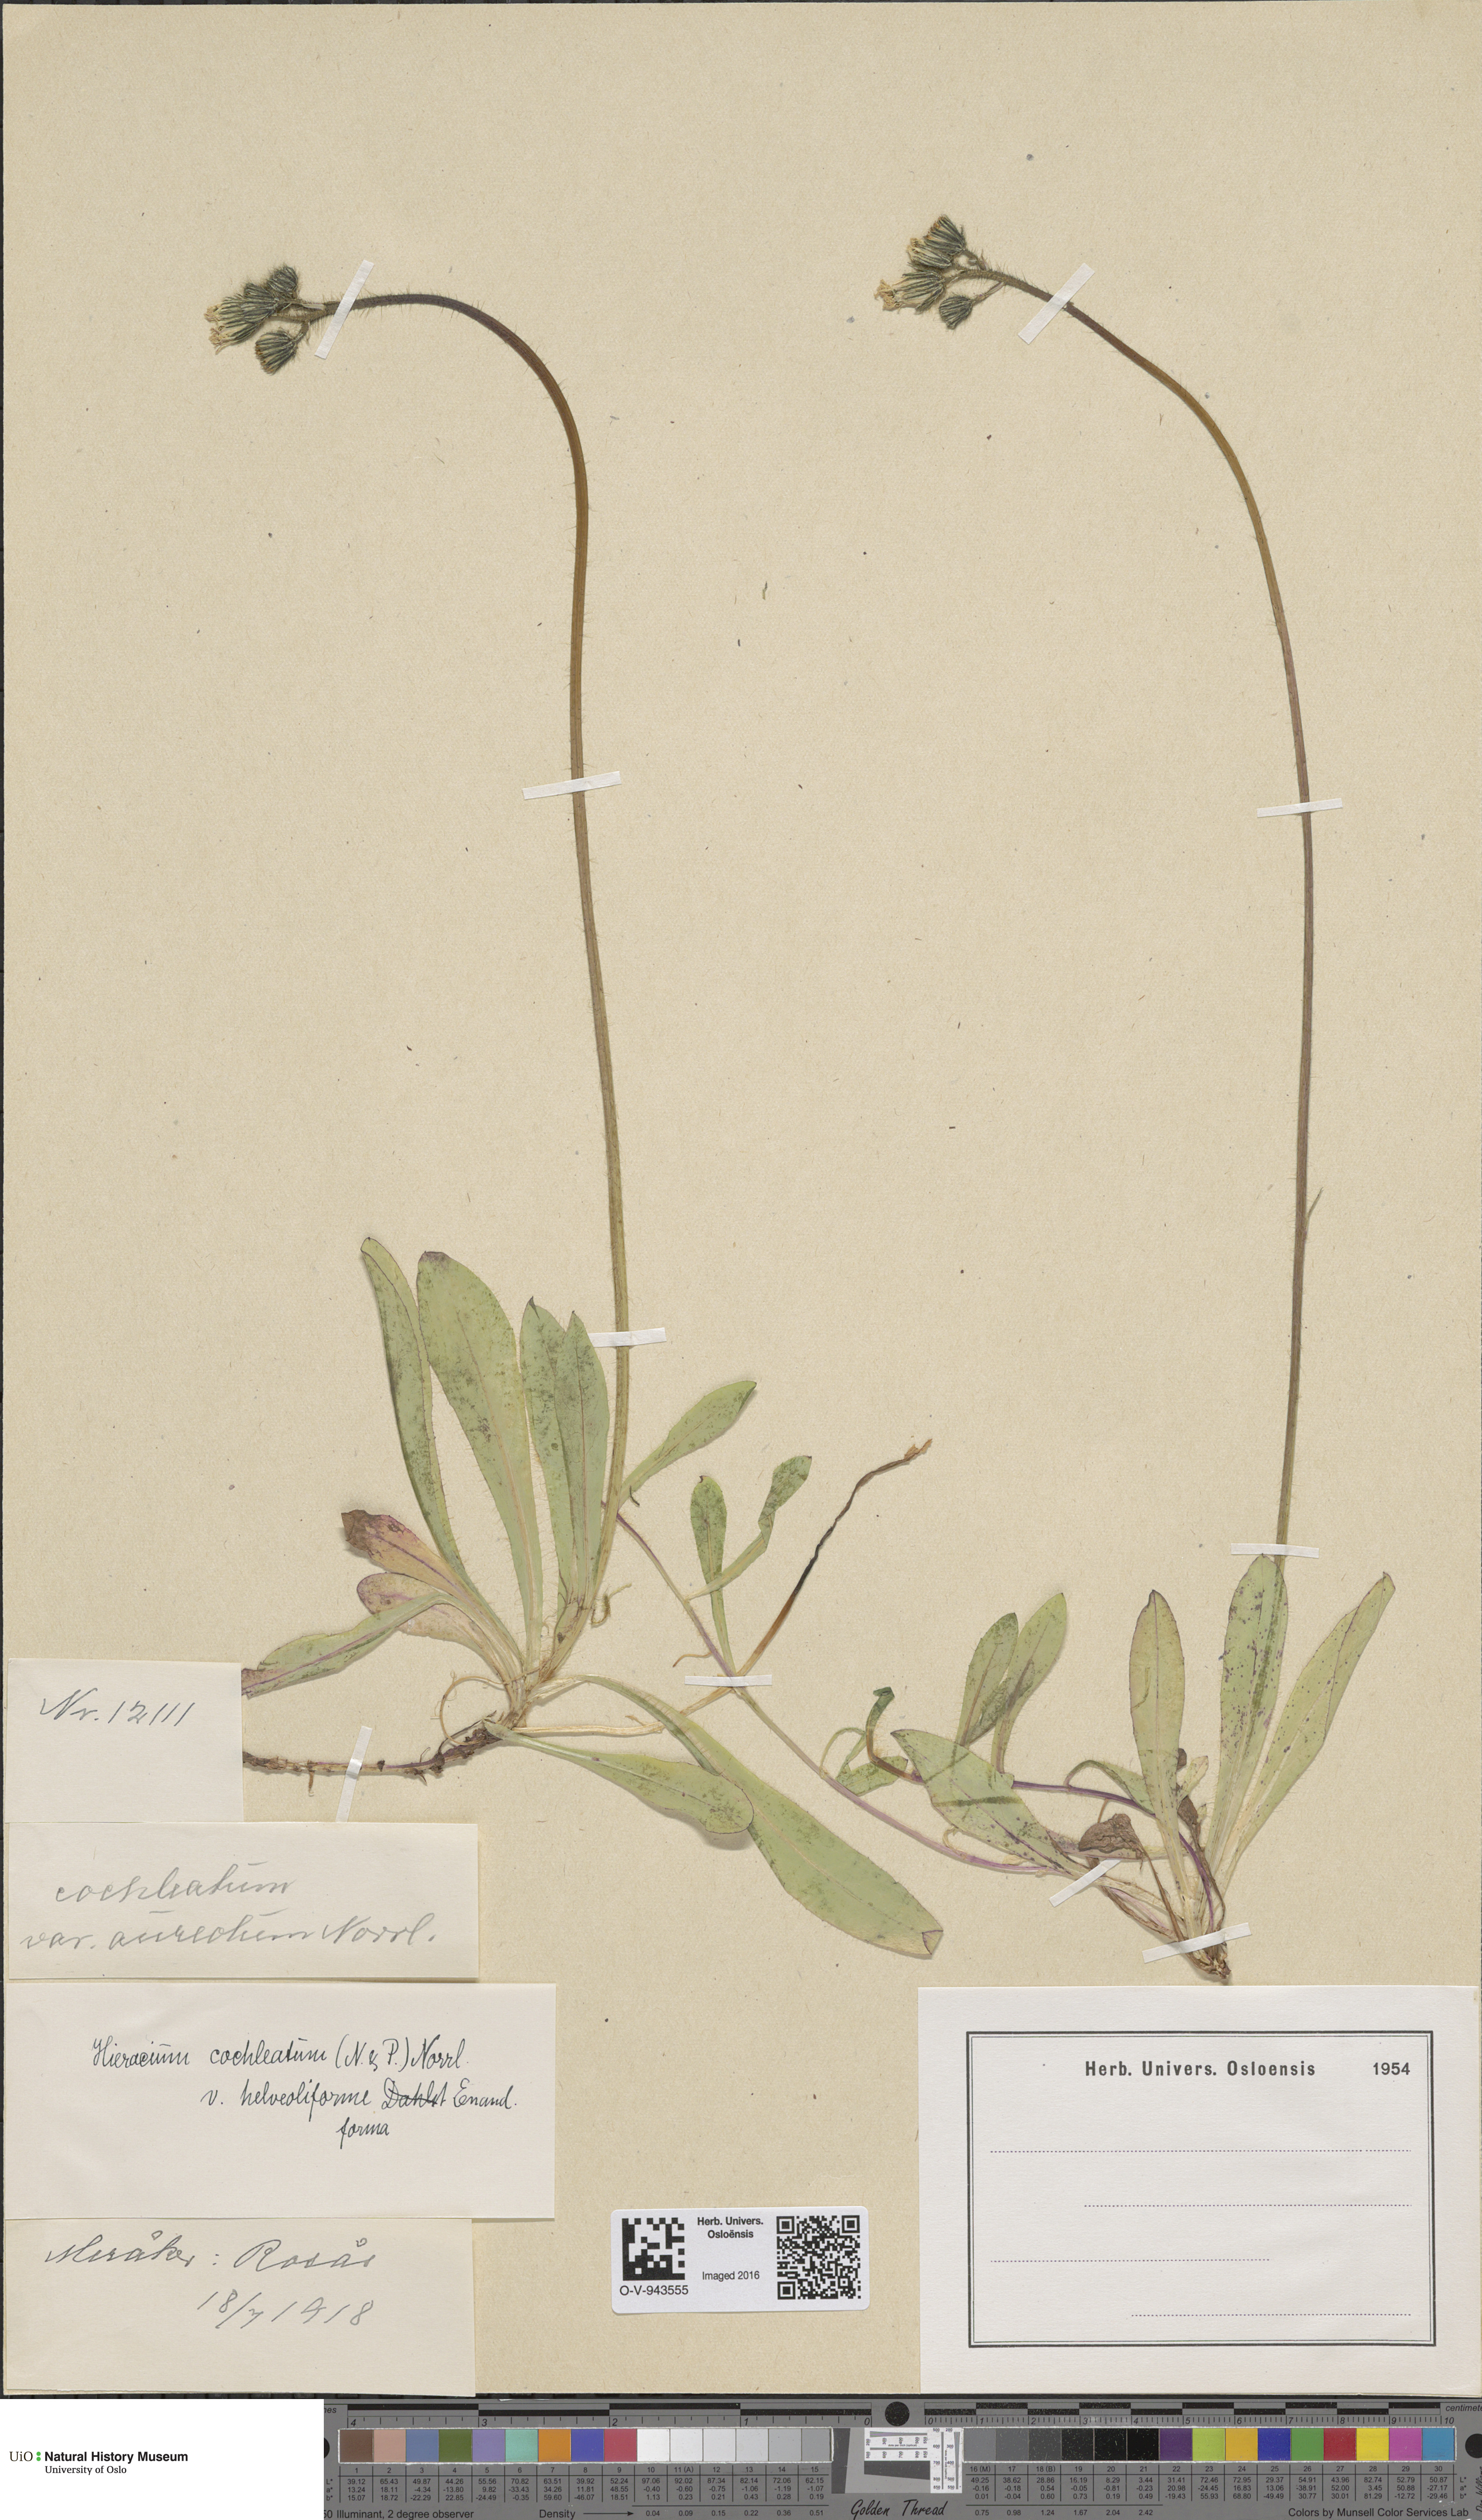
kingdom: Plantae
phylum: Tracheophyta
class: Magnoliopsida
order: Asterales
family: Asteraceae
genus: Pilosella
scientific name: Pilosella floribunda
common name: Glaucous hawkweed
